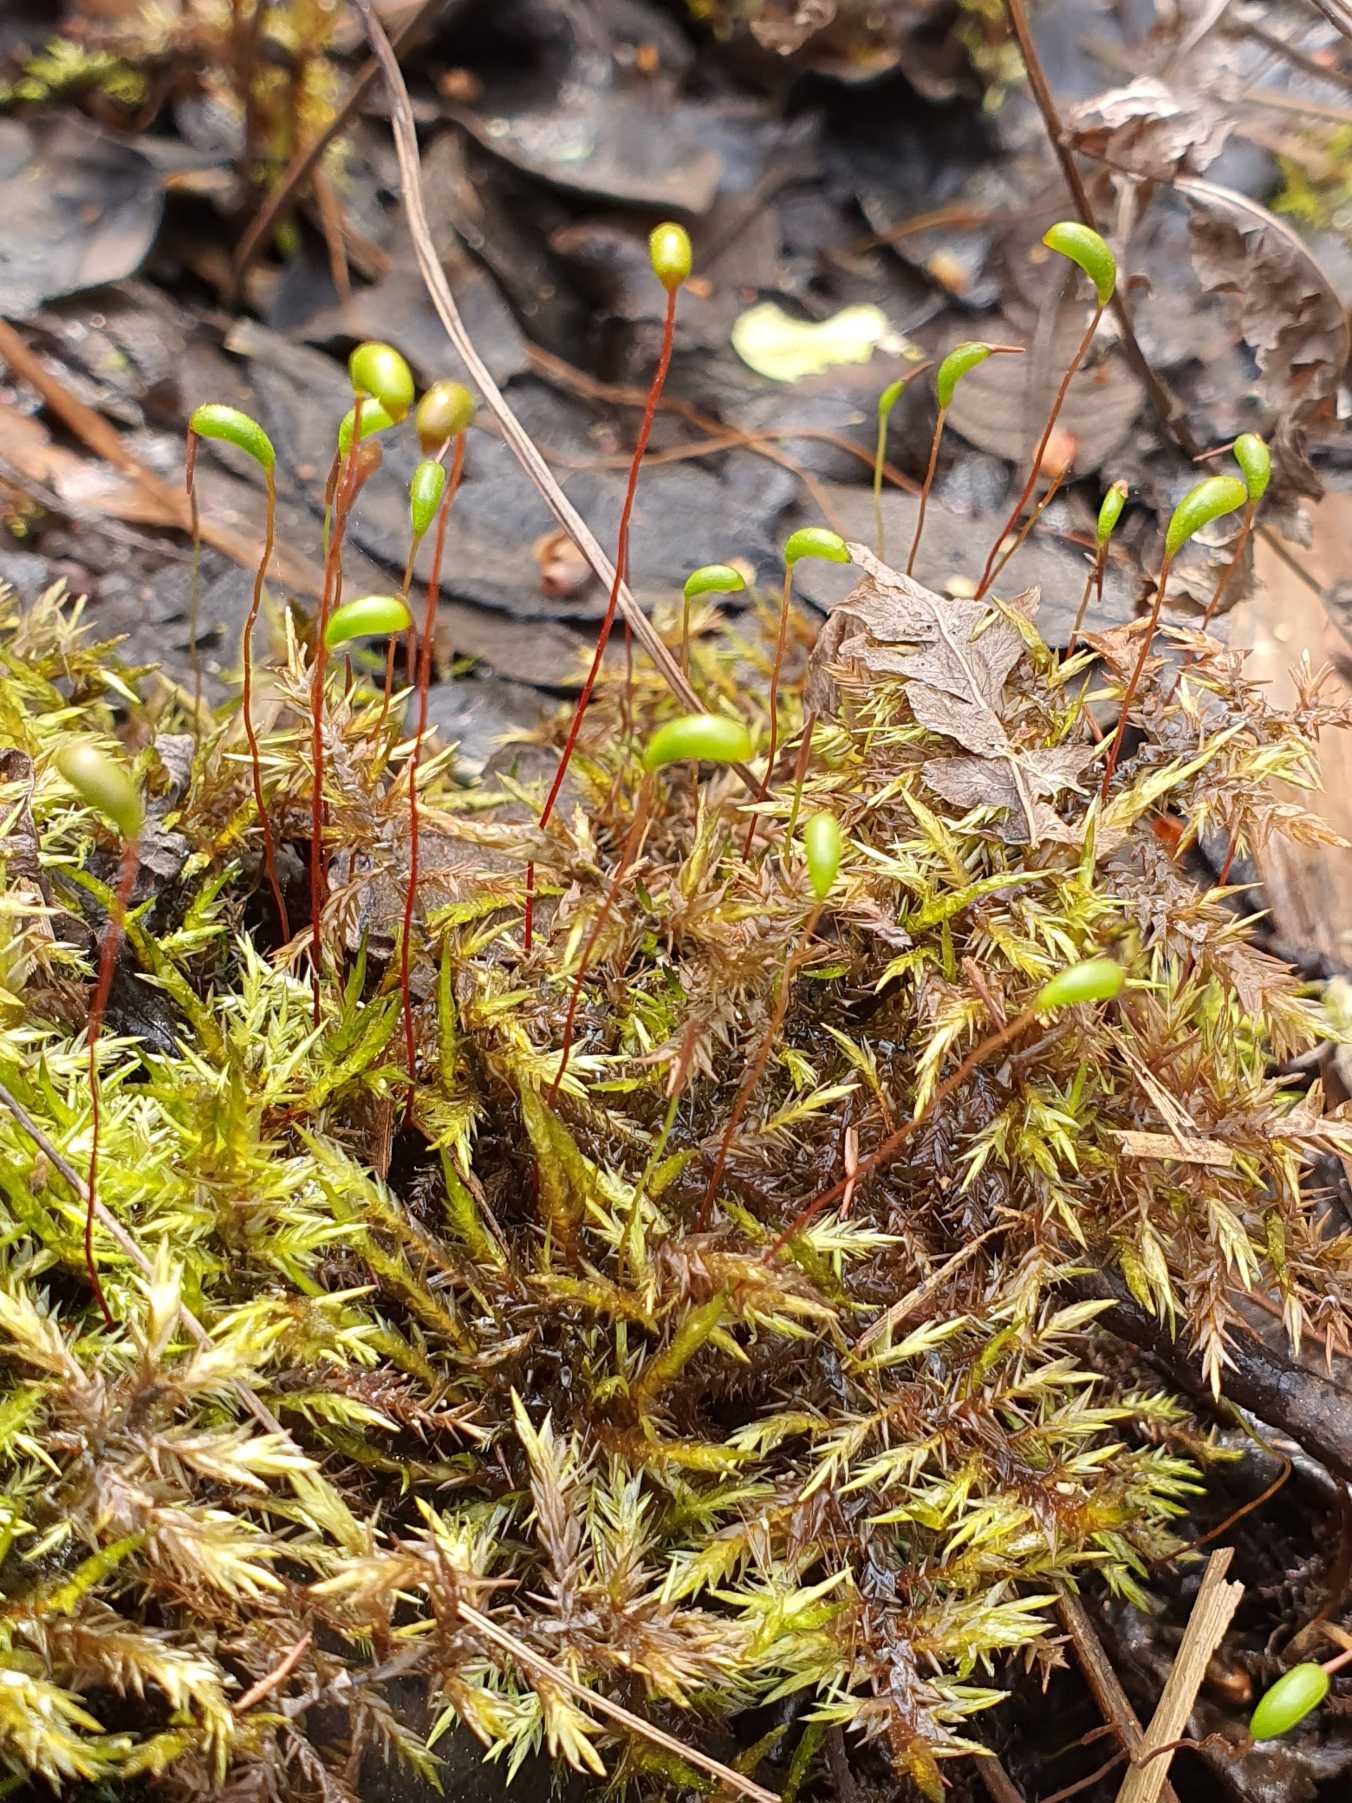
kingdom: Plantae
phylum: Bryophyta
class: Bryopsida
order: Hypnales
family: Pylaisiaceae
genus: Calliergonella
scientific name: Calliergonella cuspidata
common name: Spids spydmos
